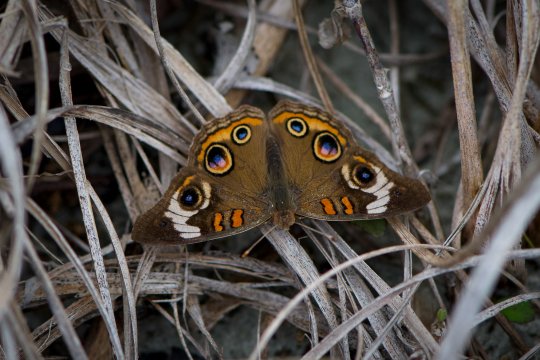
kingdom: Animalia
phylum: Arthropoda
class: Insecta
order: Lepidoptera
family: Nymphalidae
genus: Junonia
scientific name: Junonia coenia
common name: Common Buckeye
